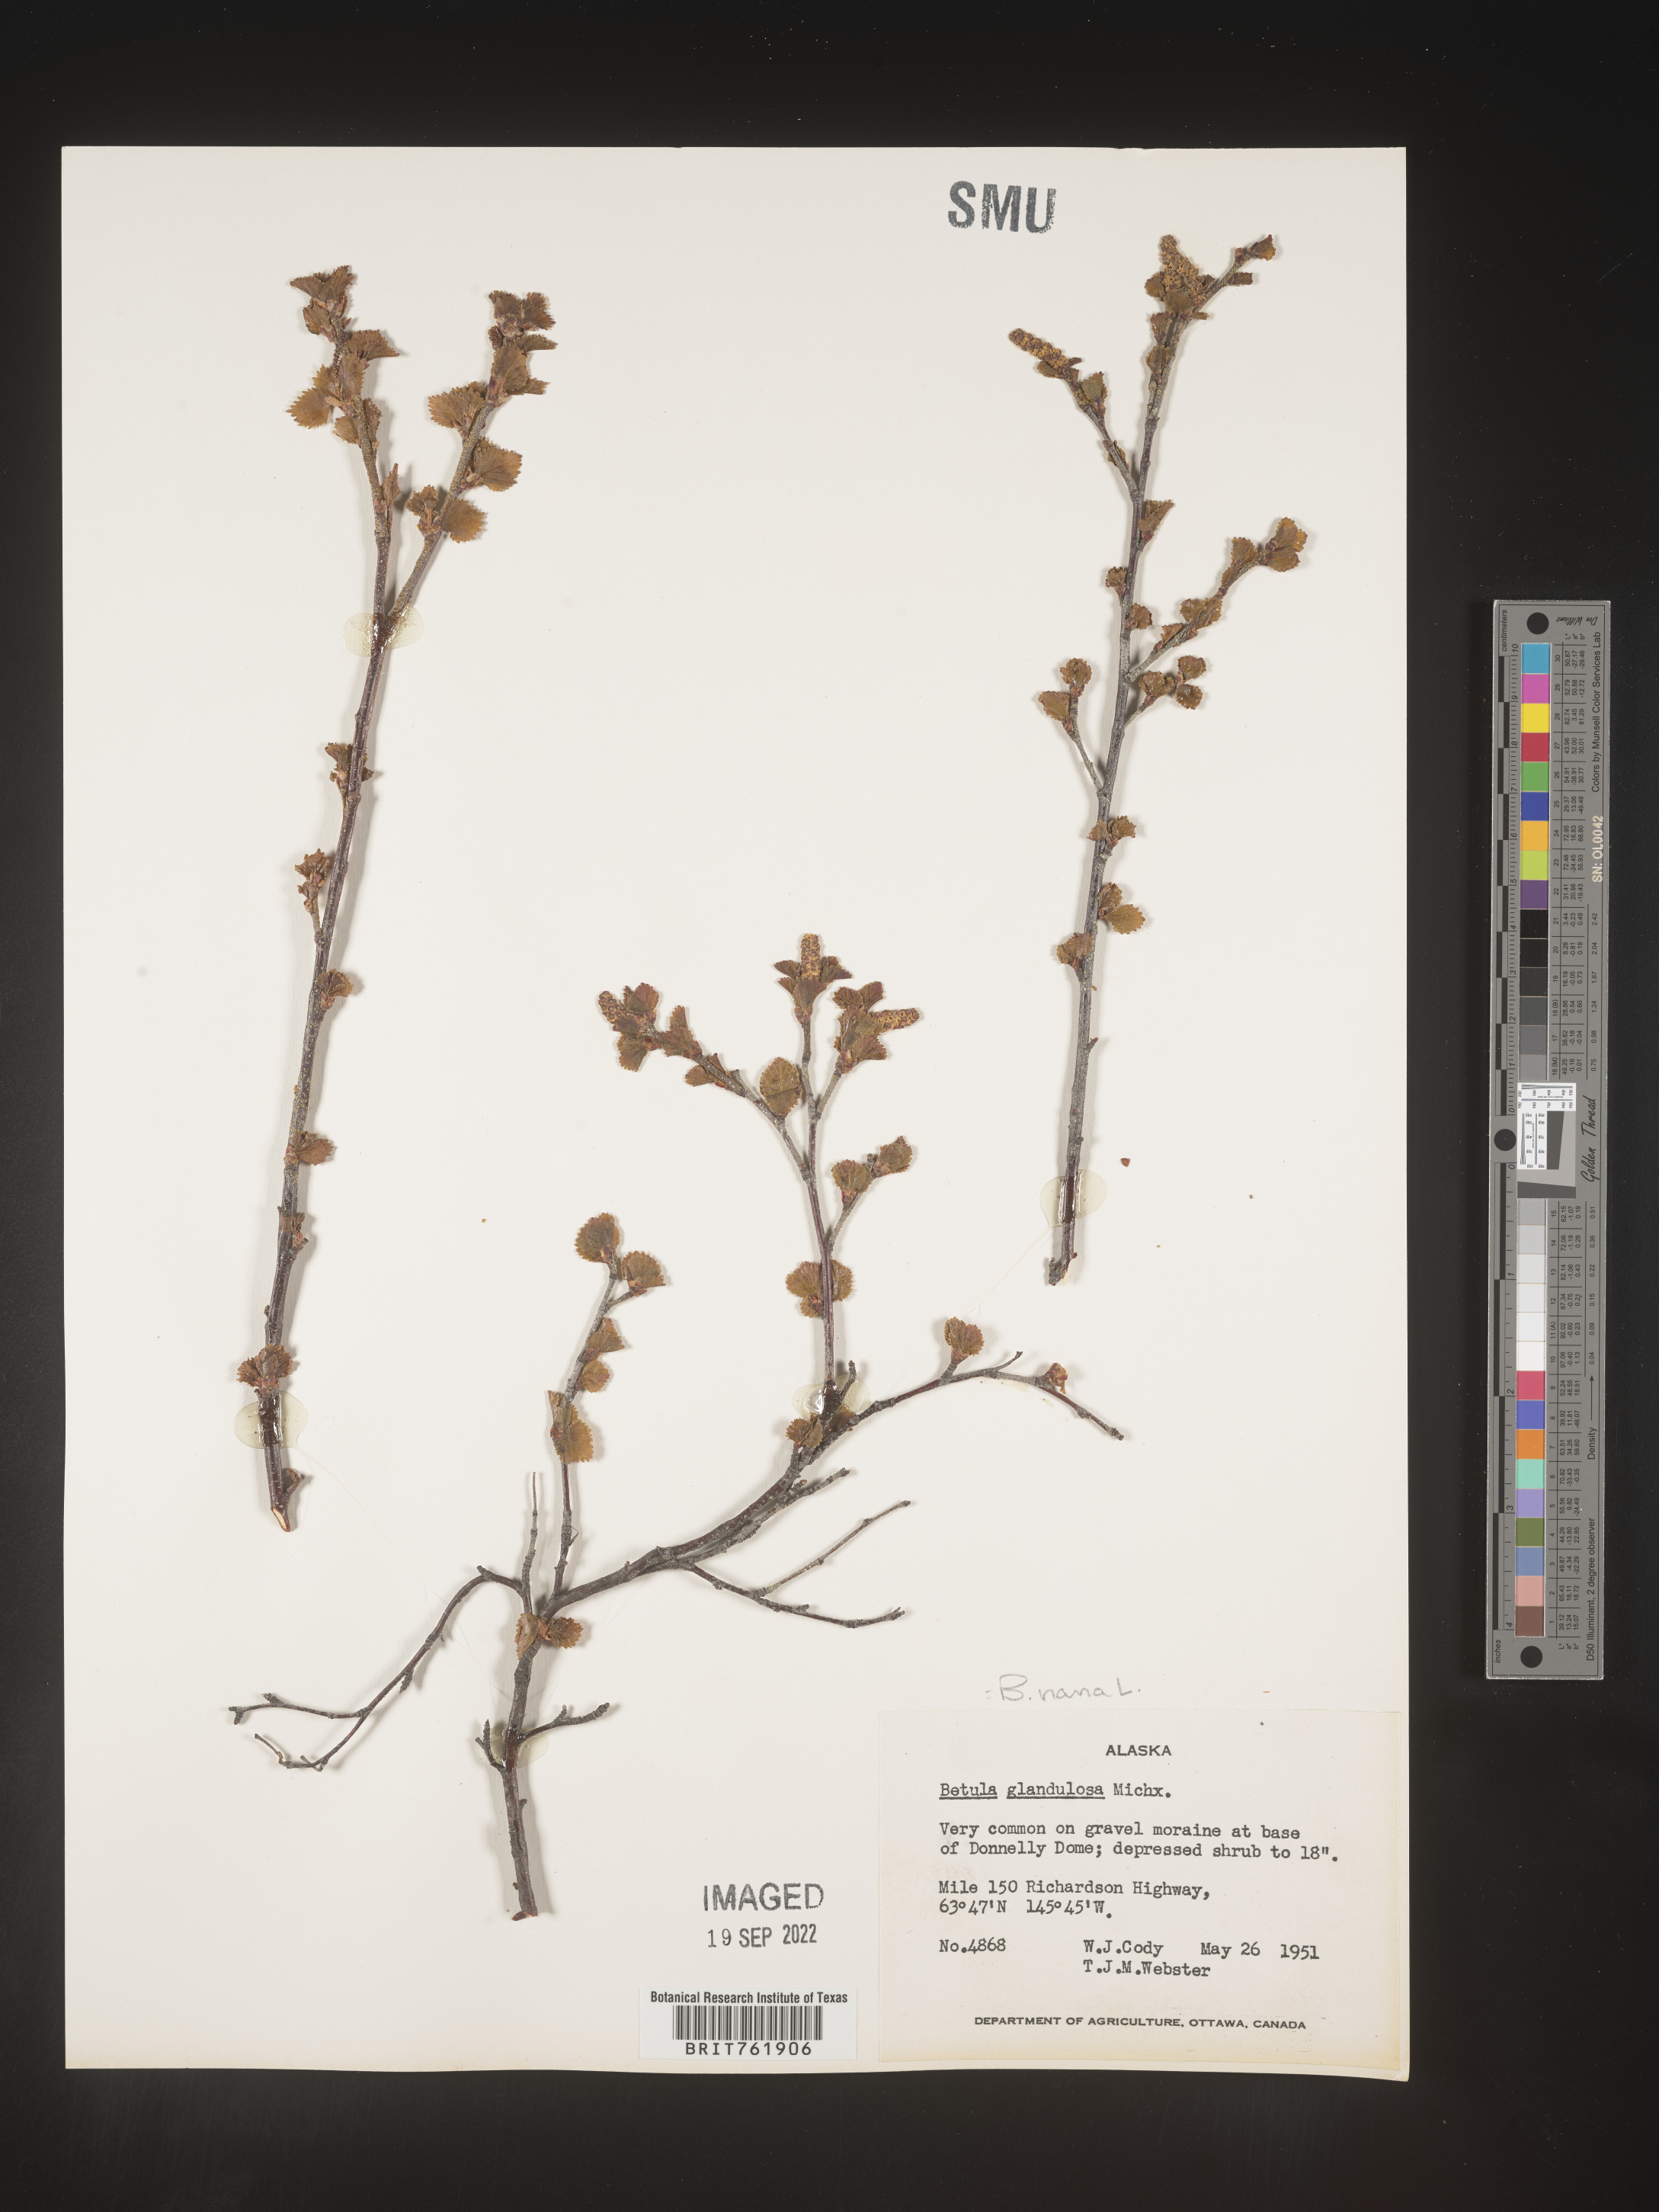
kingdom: Plantae
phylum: Tracheophyta
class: Magnoliopsida
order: Fagales
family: Betulaceae
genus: Betula
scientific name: Betula nana
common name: Arctic dwarf birch
